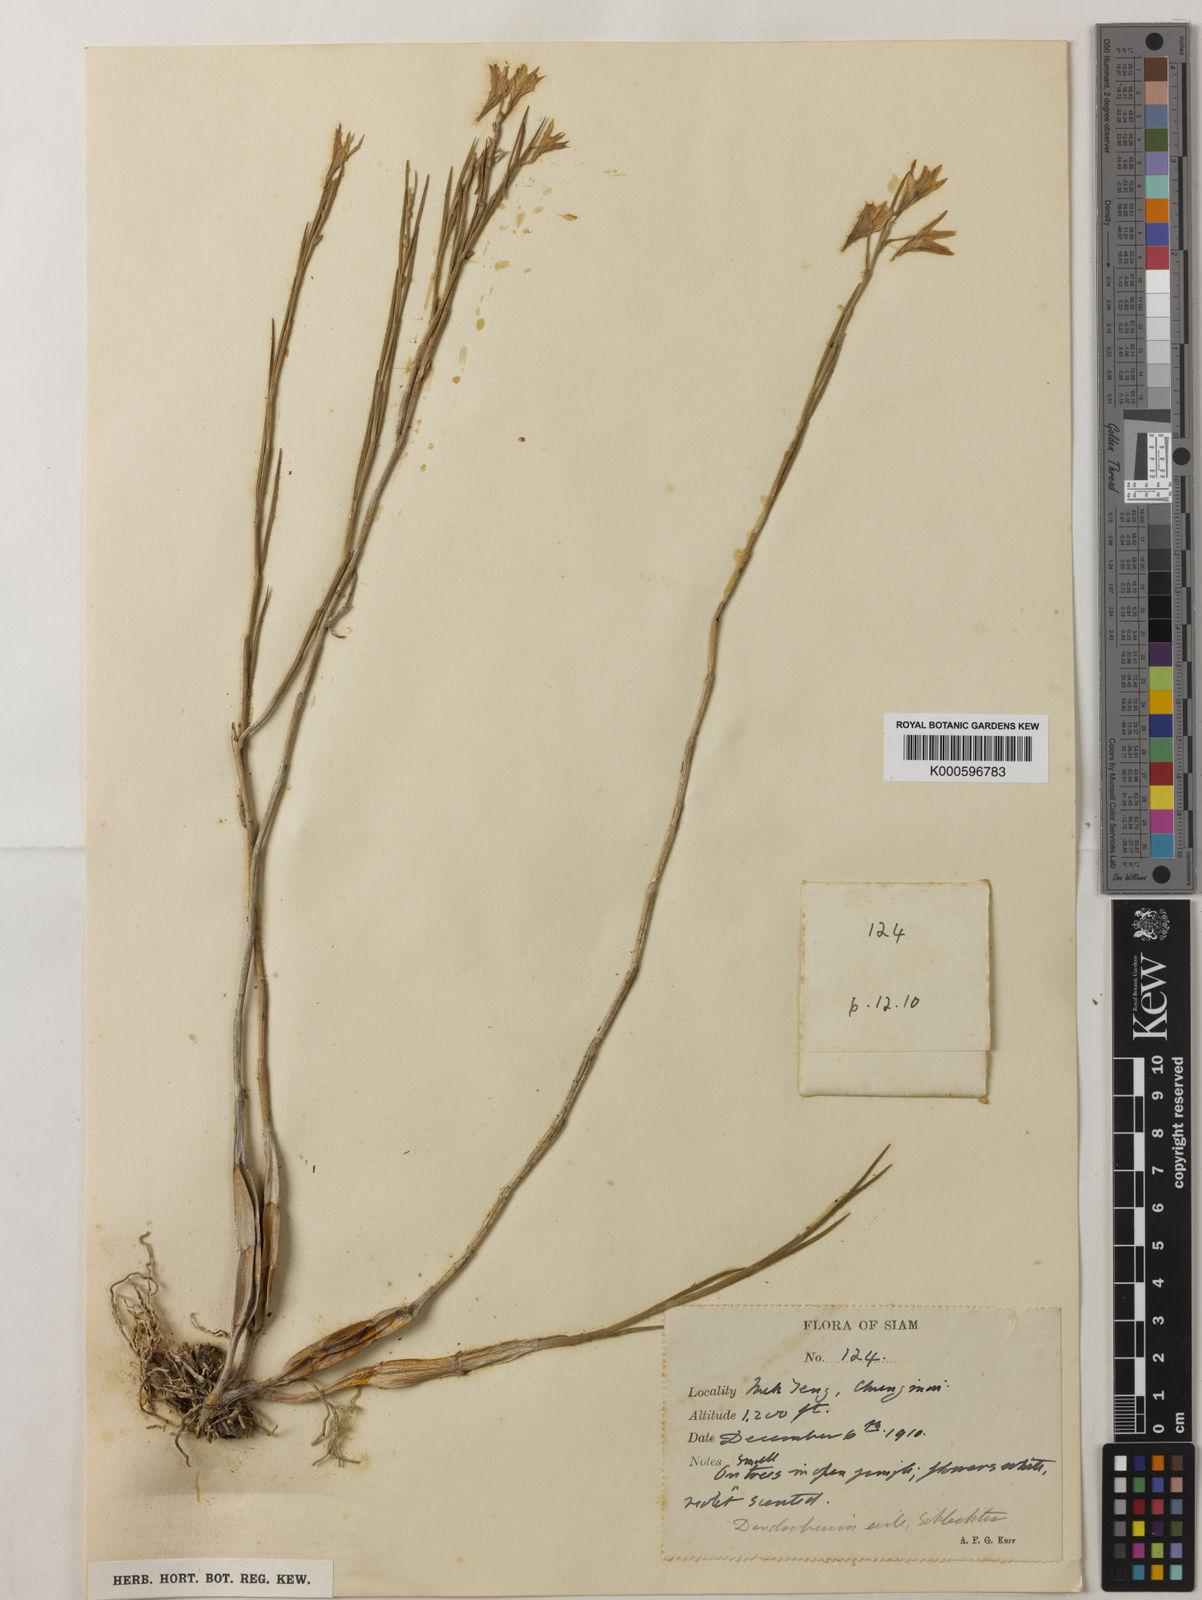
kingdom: Plantae
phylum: Tracheophyta
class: Liliopsida
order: Asparagales
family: Orchidaceae
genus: Dendrobium
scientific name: Dendrobium exile
